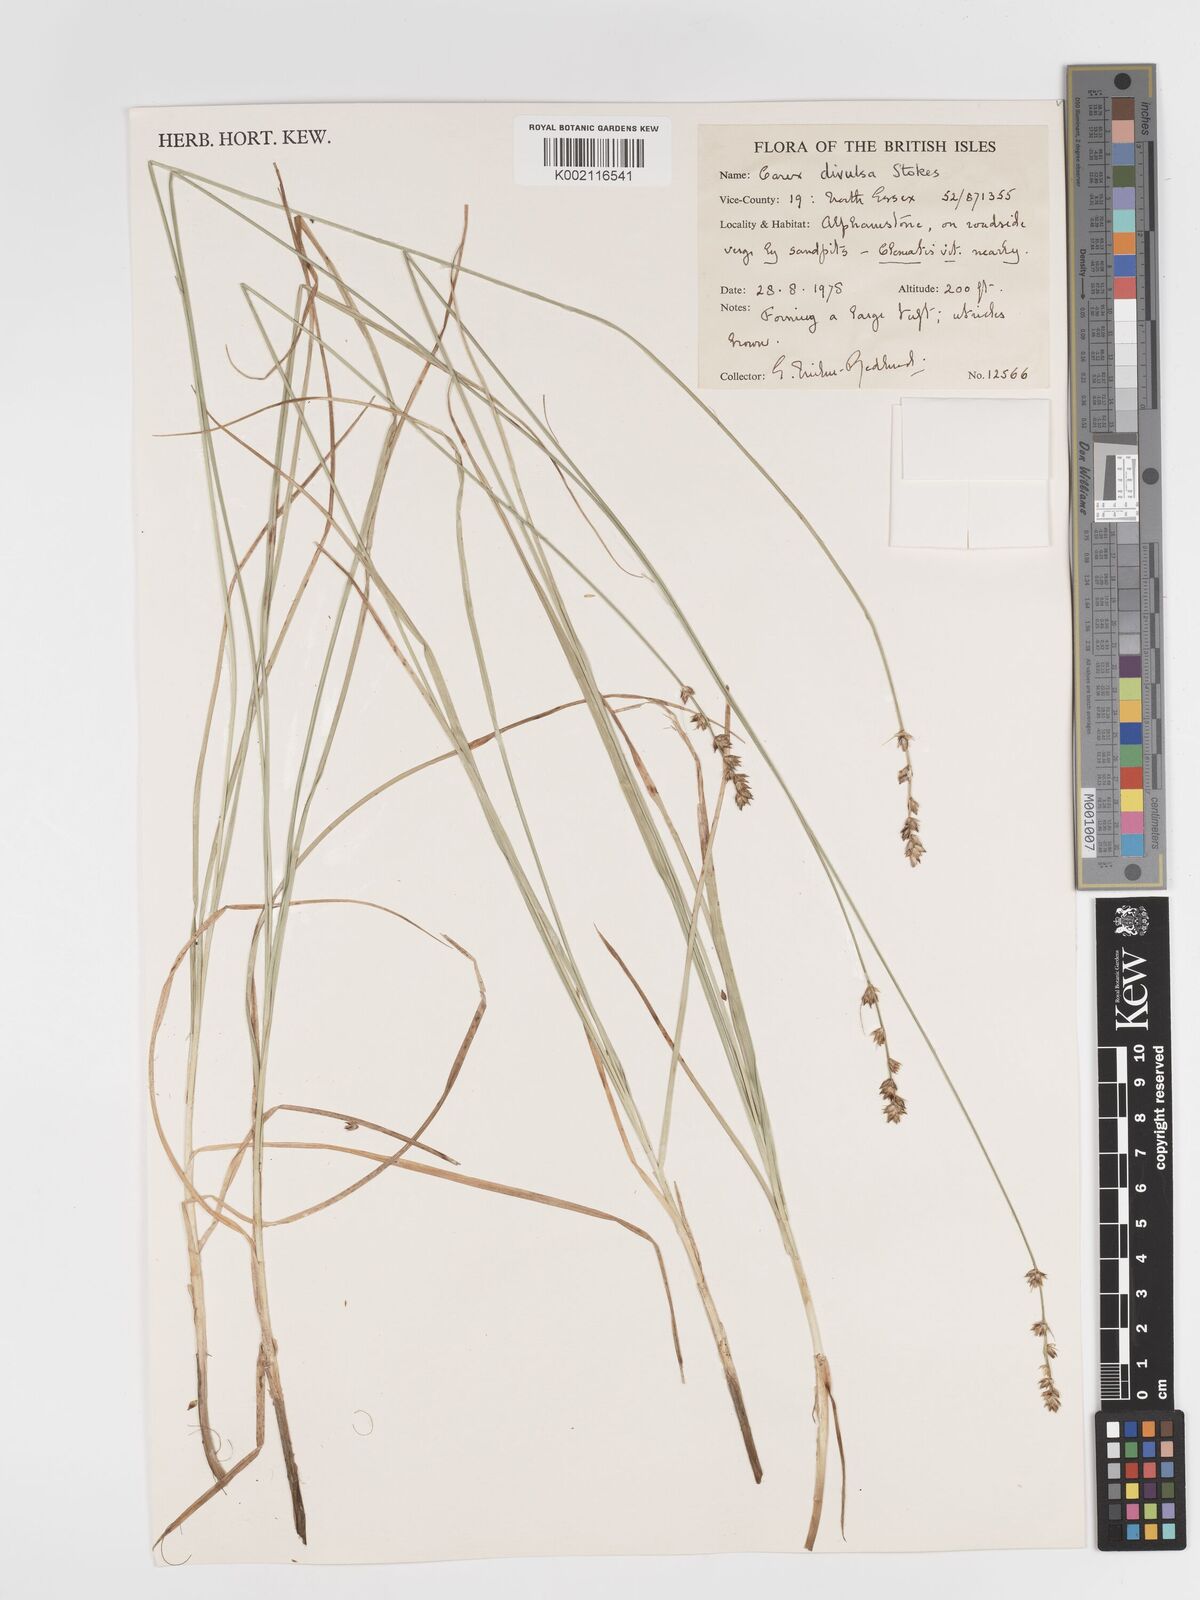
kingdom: Plantae
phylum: Tracheophyta
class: Liliopsida
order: Poales
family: Cyperaceae
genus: Carex
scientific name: Carex divulsa
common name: Grassland sedge
